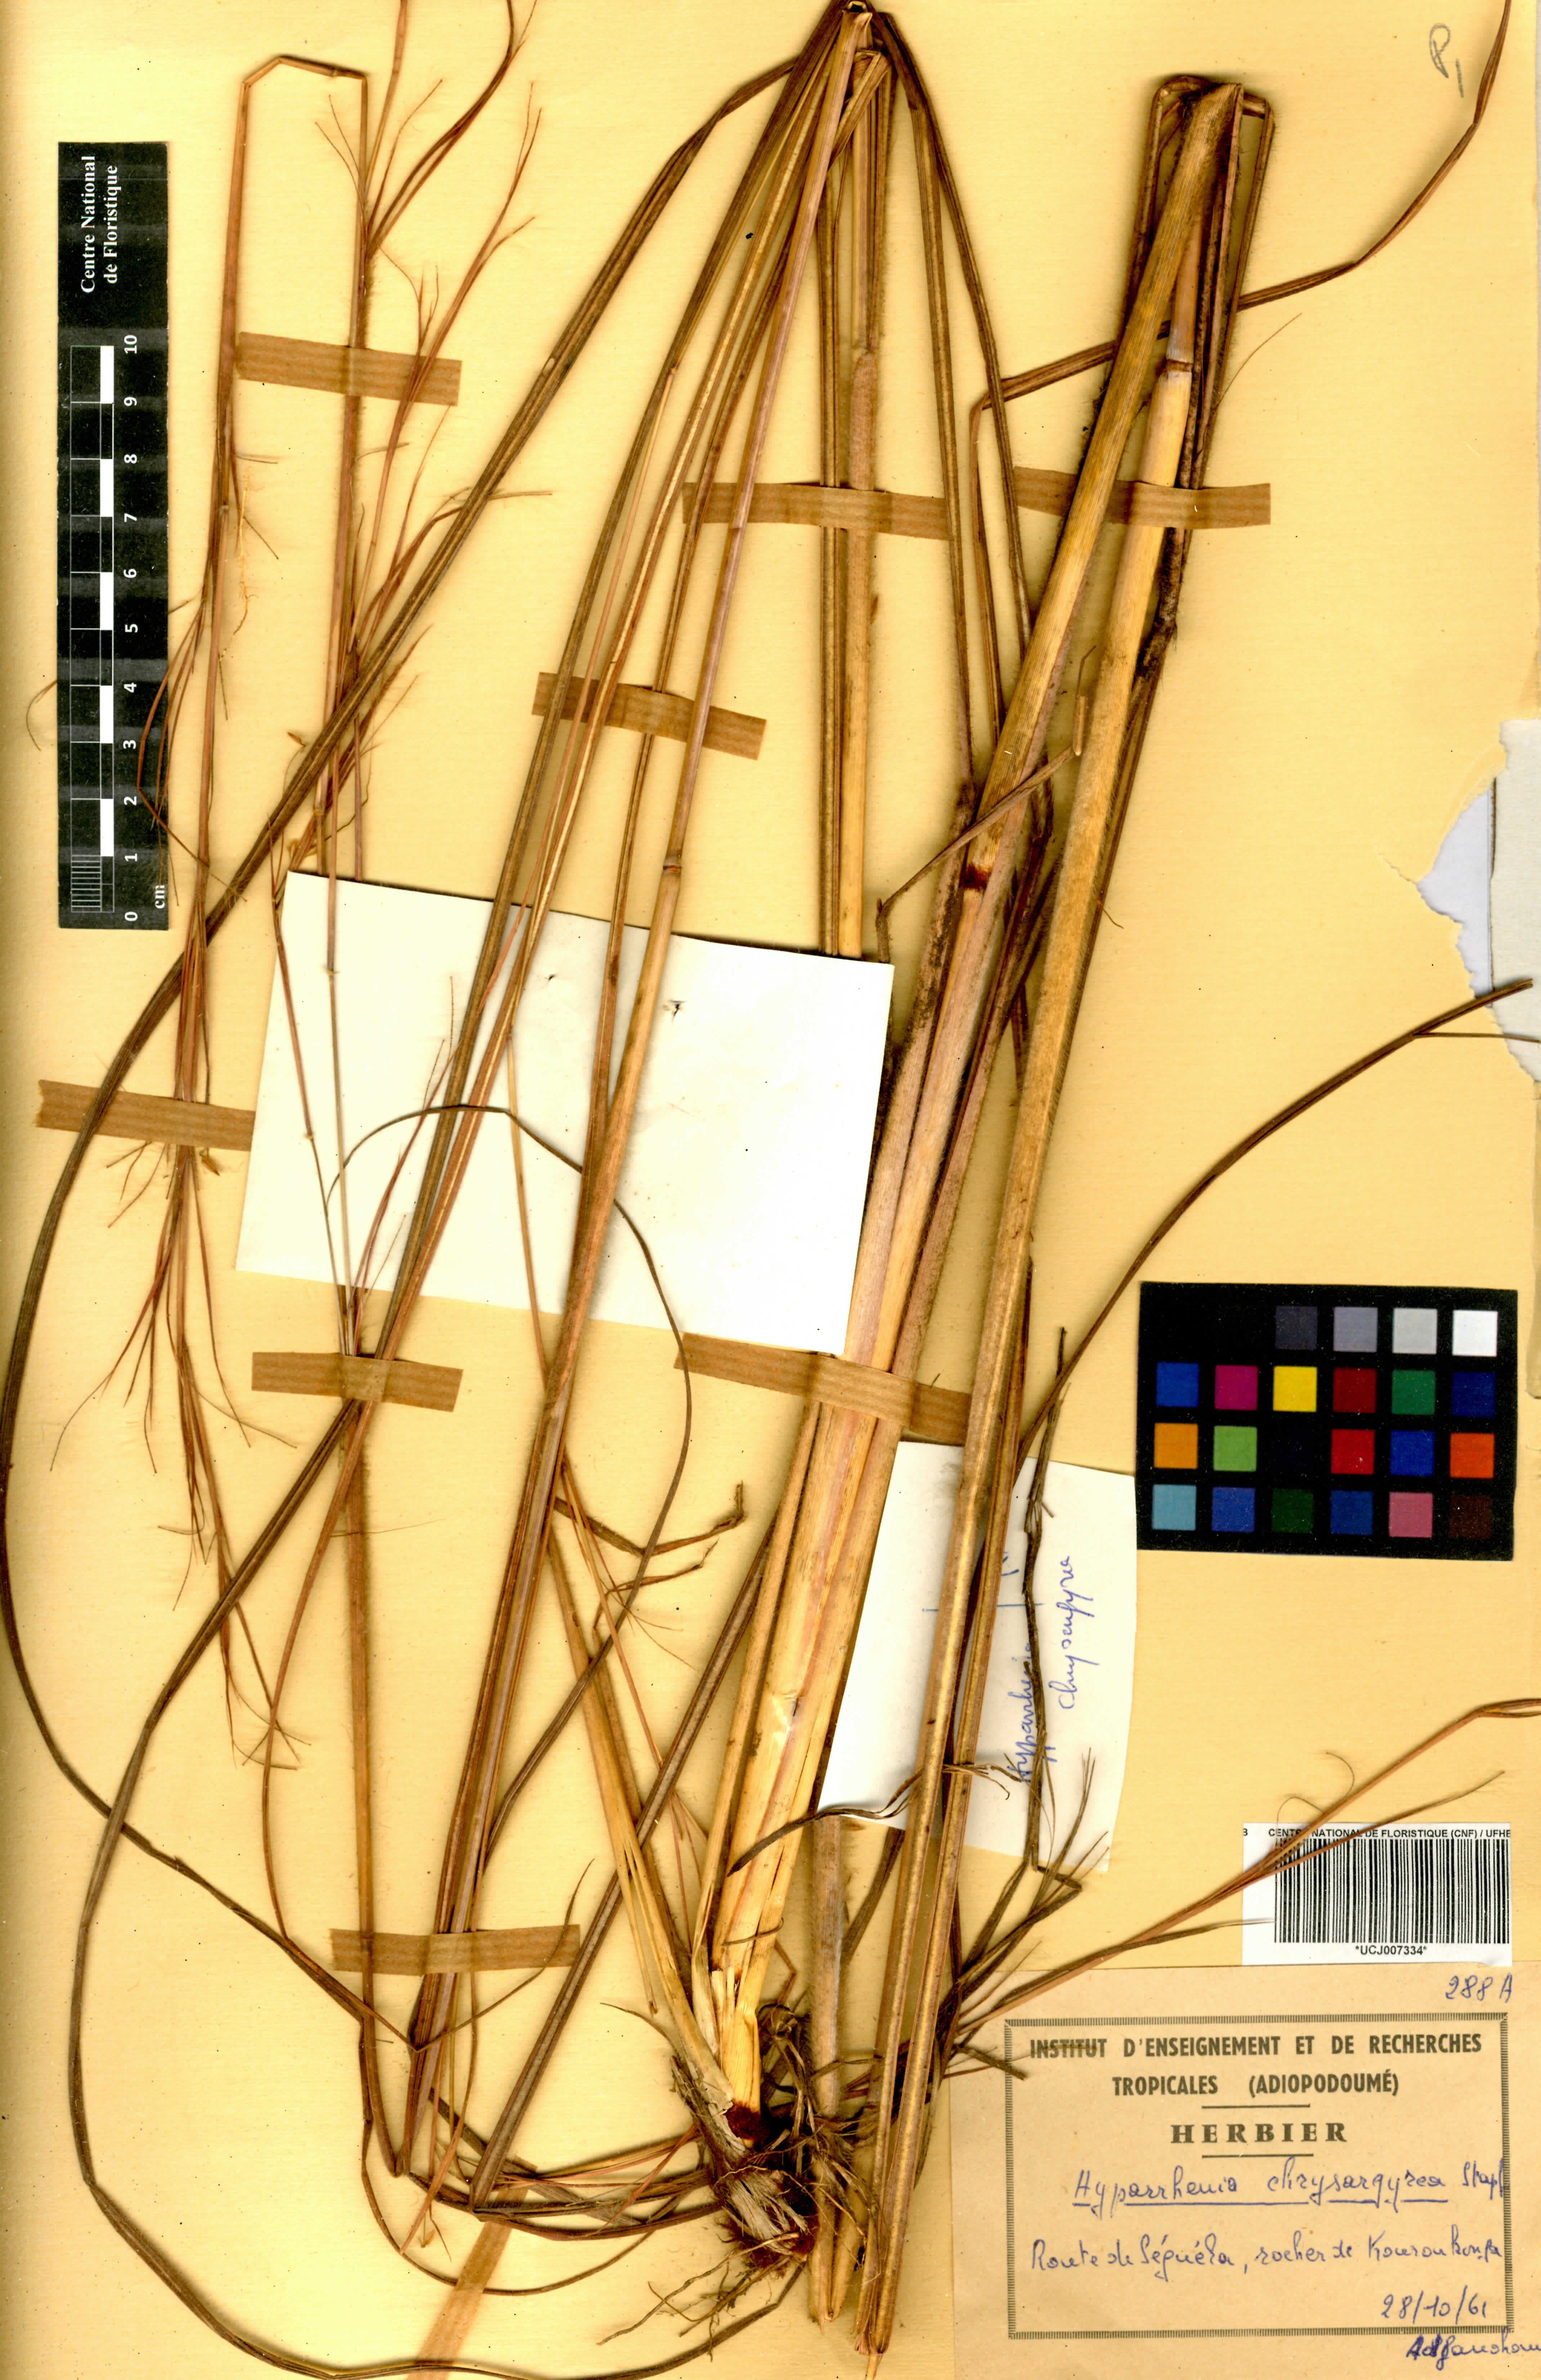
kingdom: Plantae
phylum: Tracheophyta
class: Liliopsida
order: Poales
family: Poaceae
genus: Hyparrhenia
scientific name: Hyparrhenia nyassae
